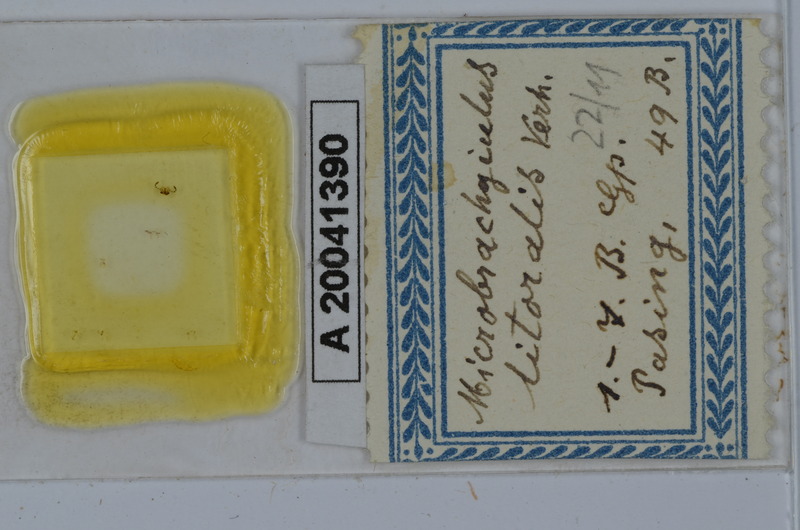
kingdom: Animalia
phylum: Arthropoda
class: Diplopoda
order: Julida
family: Julidae
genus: Brachyiulus
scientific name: Brachyiulus pusillus
